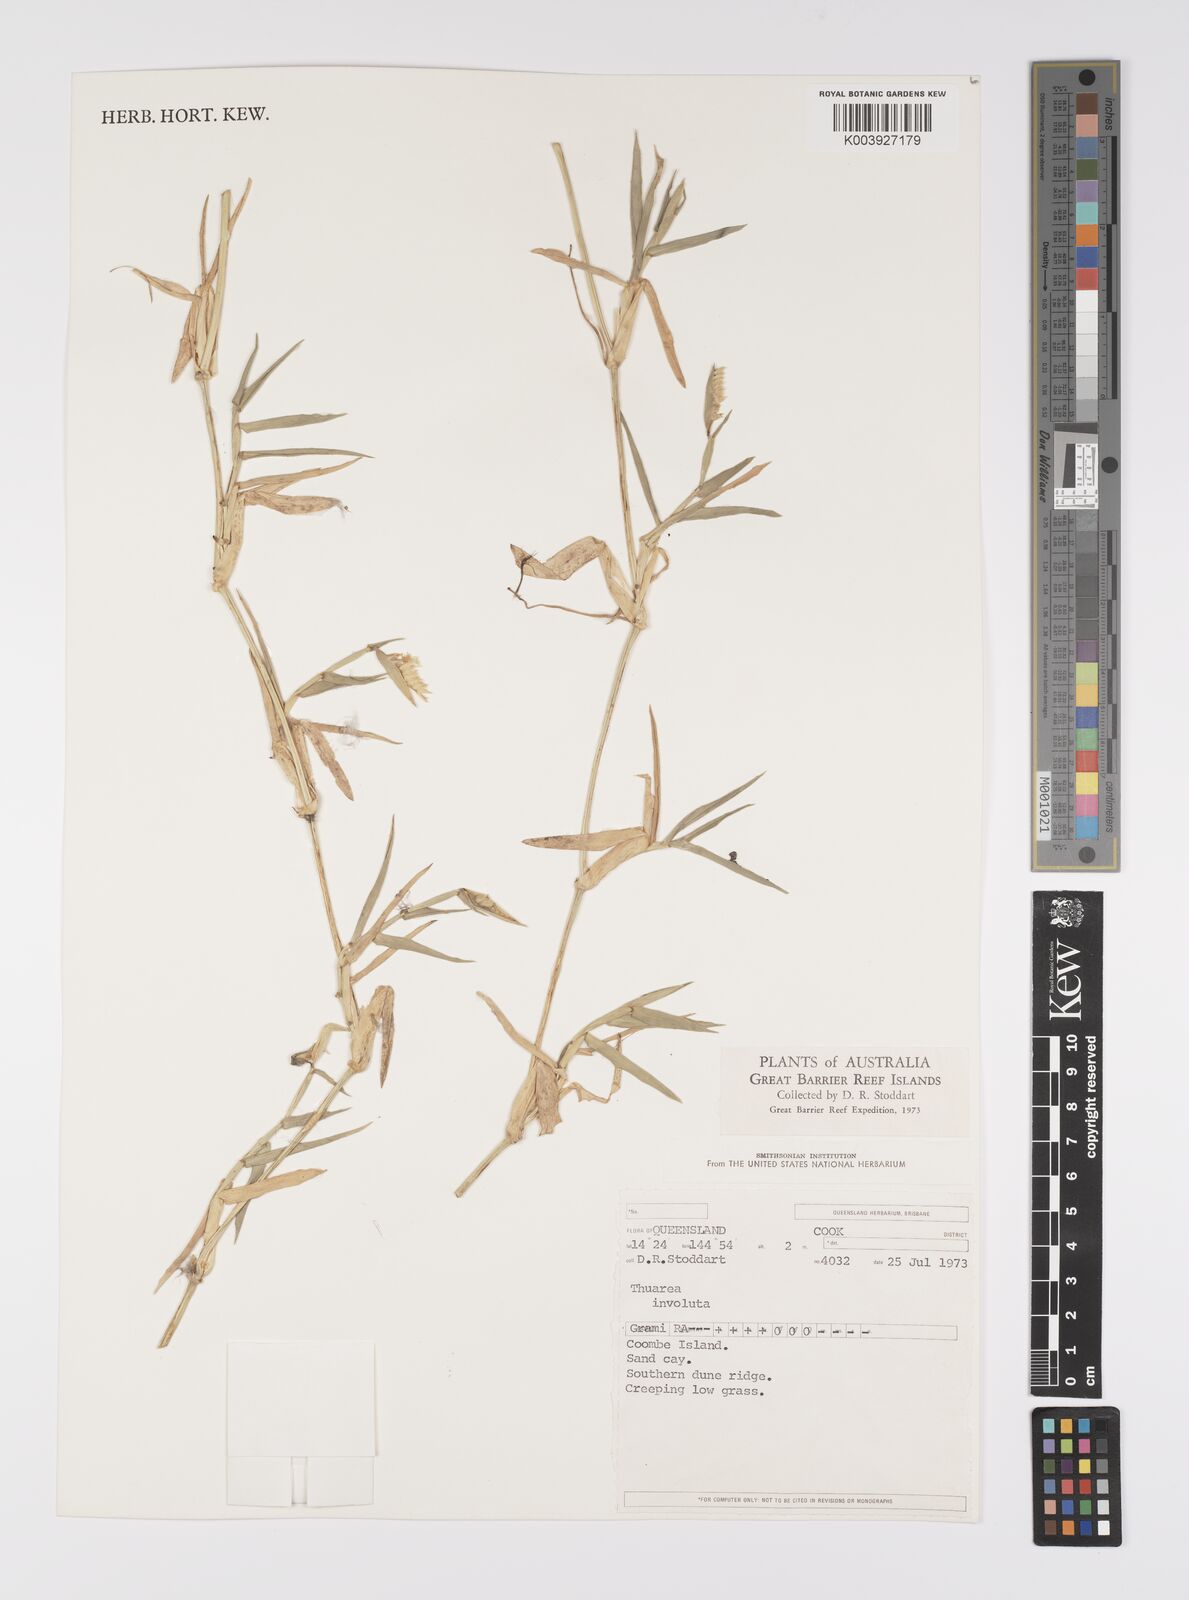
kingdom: Plantae
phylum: Tracheophyta
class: Liliopsida
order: Poales
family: Poaceae
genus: Thuarea
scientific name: Thuarea involuta
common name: Tropical beach grass
